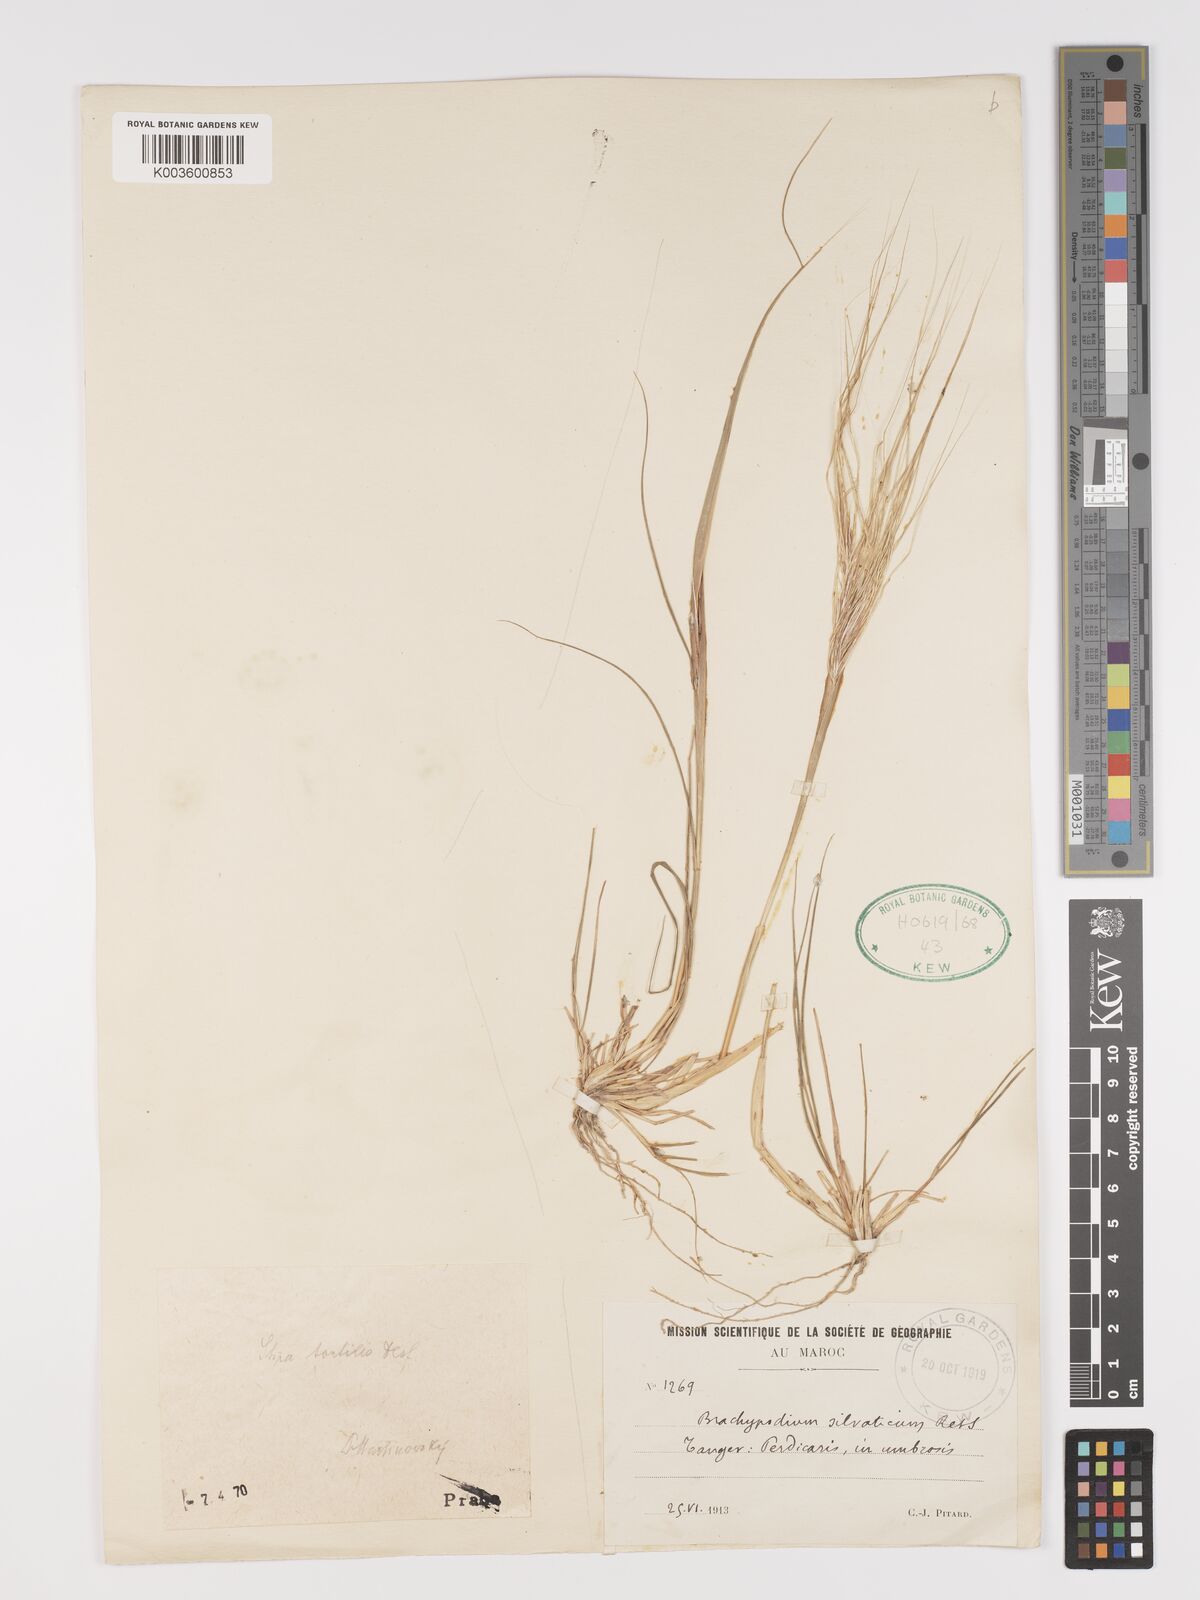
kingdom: Plantae
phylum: Tracheophyta
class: Liliopsida
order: Poales
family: Poaceae
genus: Stipellula
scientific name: Stipellula capensis
